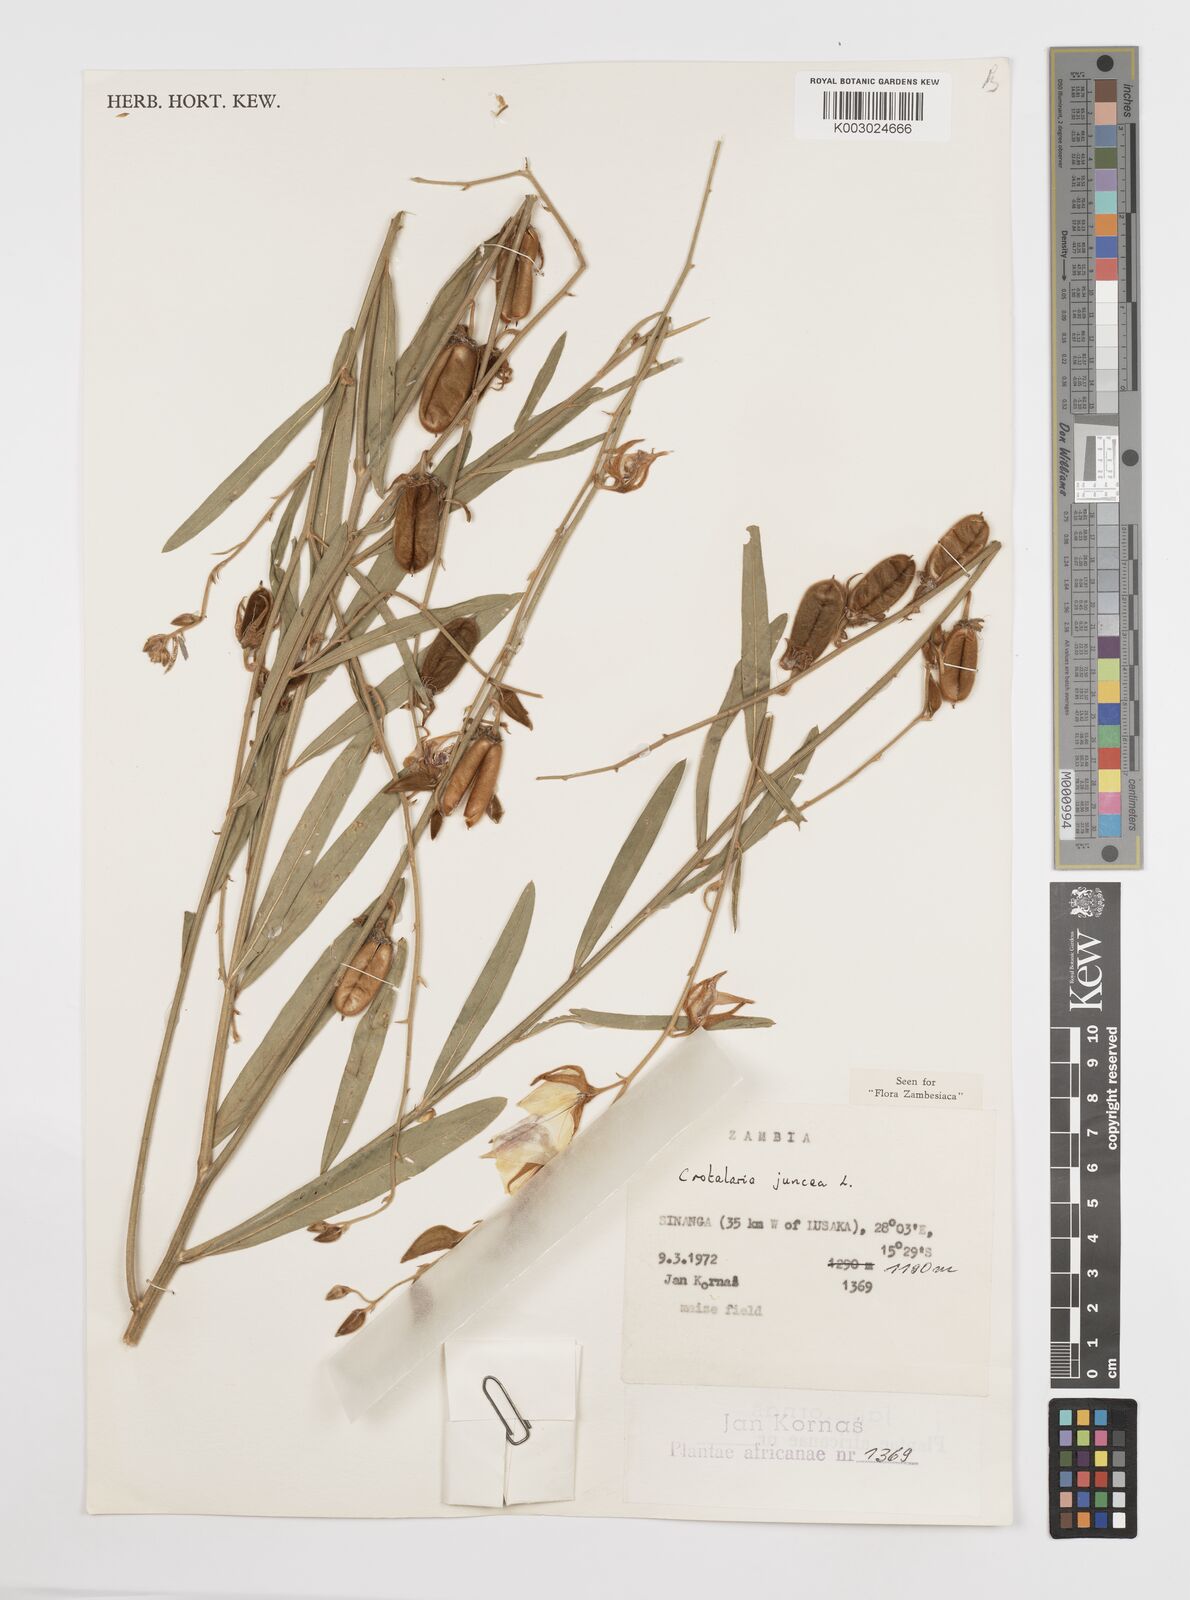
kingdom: Plantae
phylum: Tracheophyta
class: Magnoliopsida
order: Fabales
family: Fabaceae
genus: Crotalaria
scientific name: Crotalaria juncea
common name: Sunn hemp
